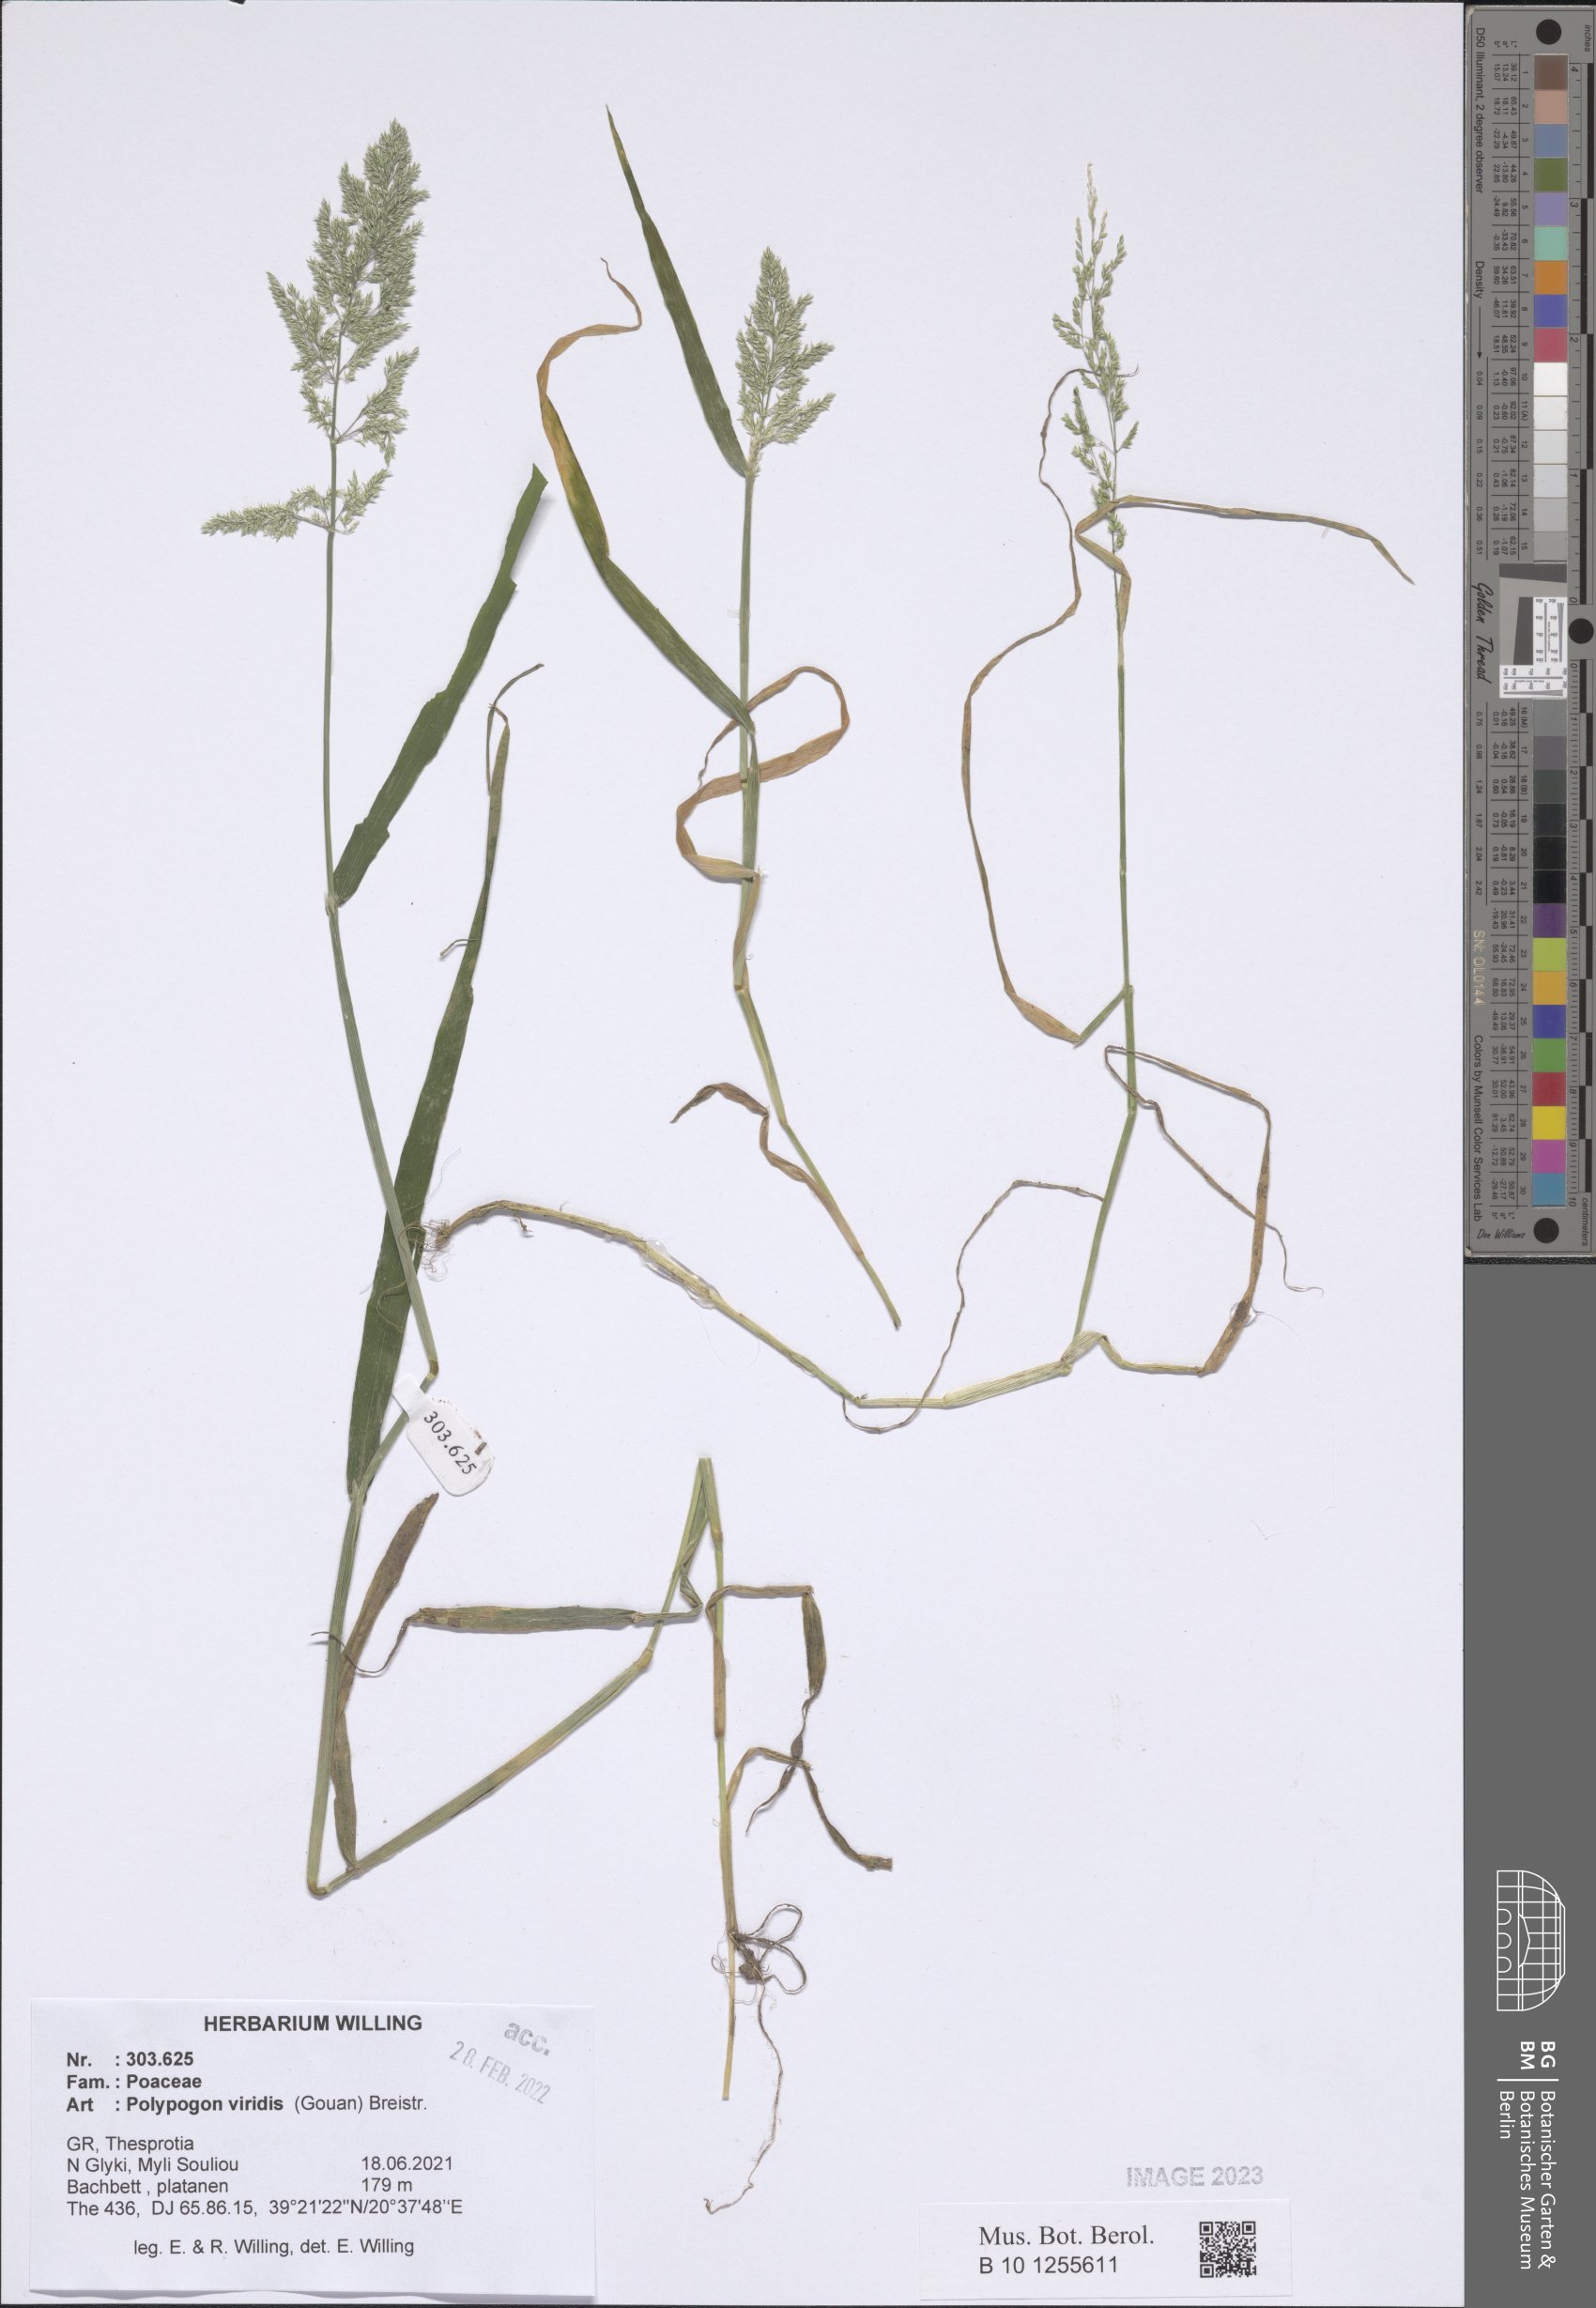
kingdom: Plantae
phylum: Tracheophyta
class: Liliopsida
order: Poales
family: Poaceae
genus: Polypogon
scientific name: Polypogon viridis
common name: Water bent
